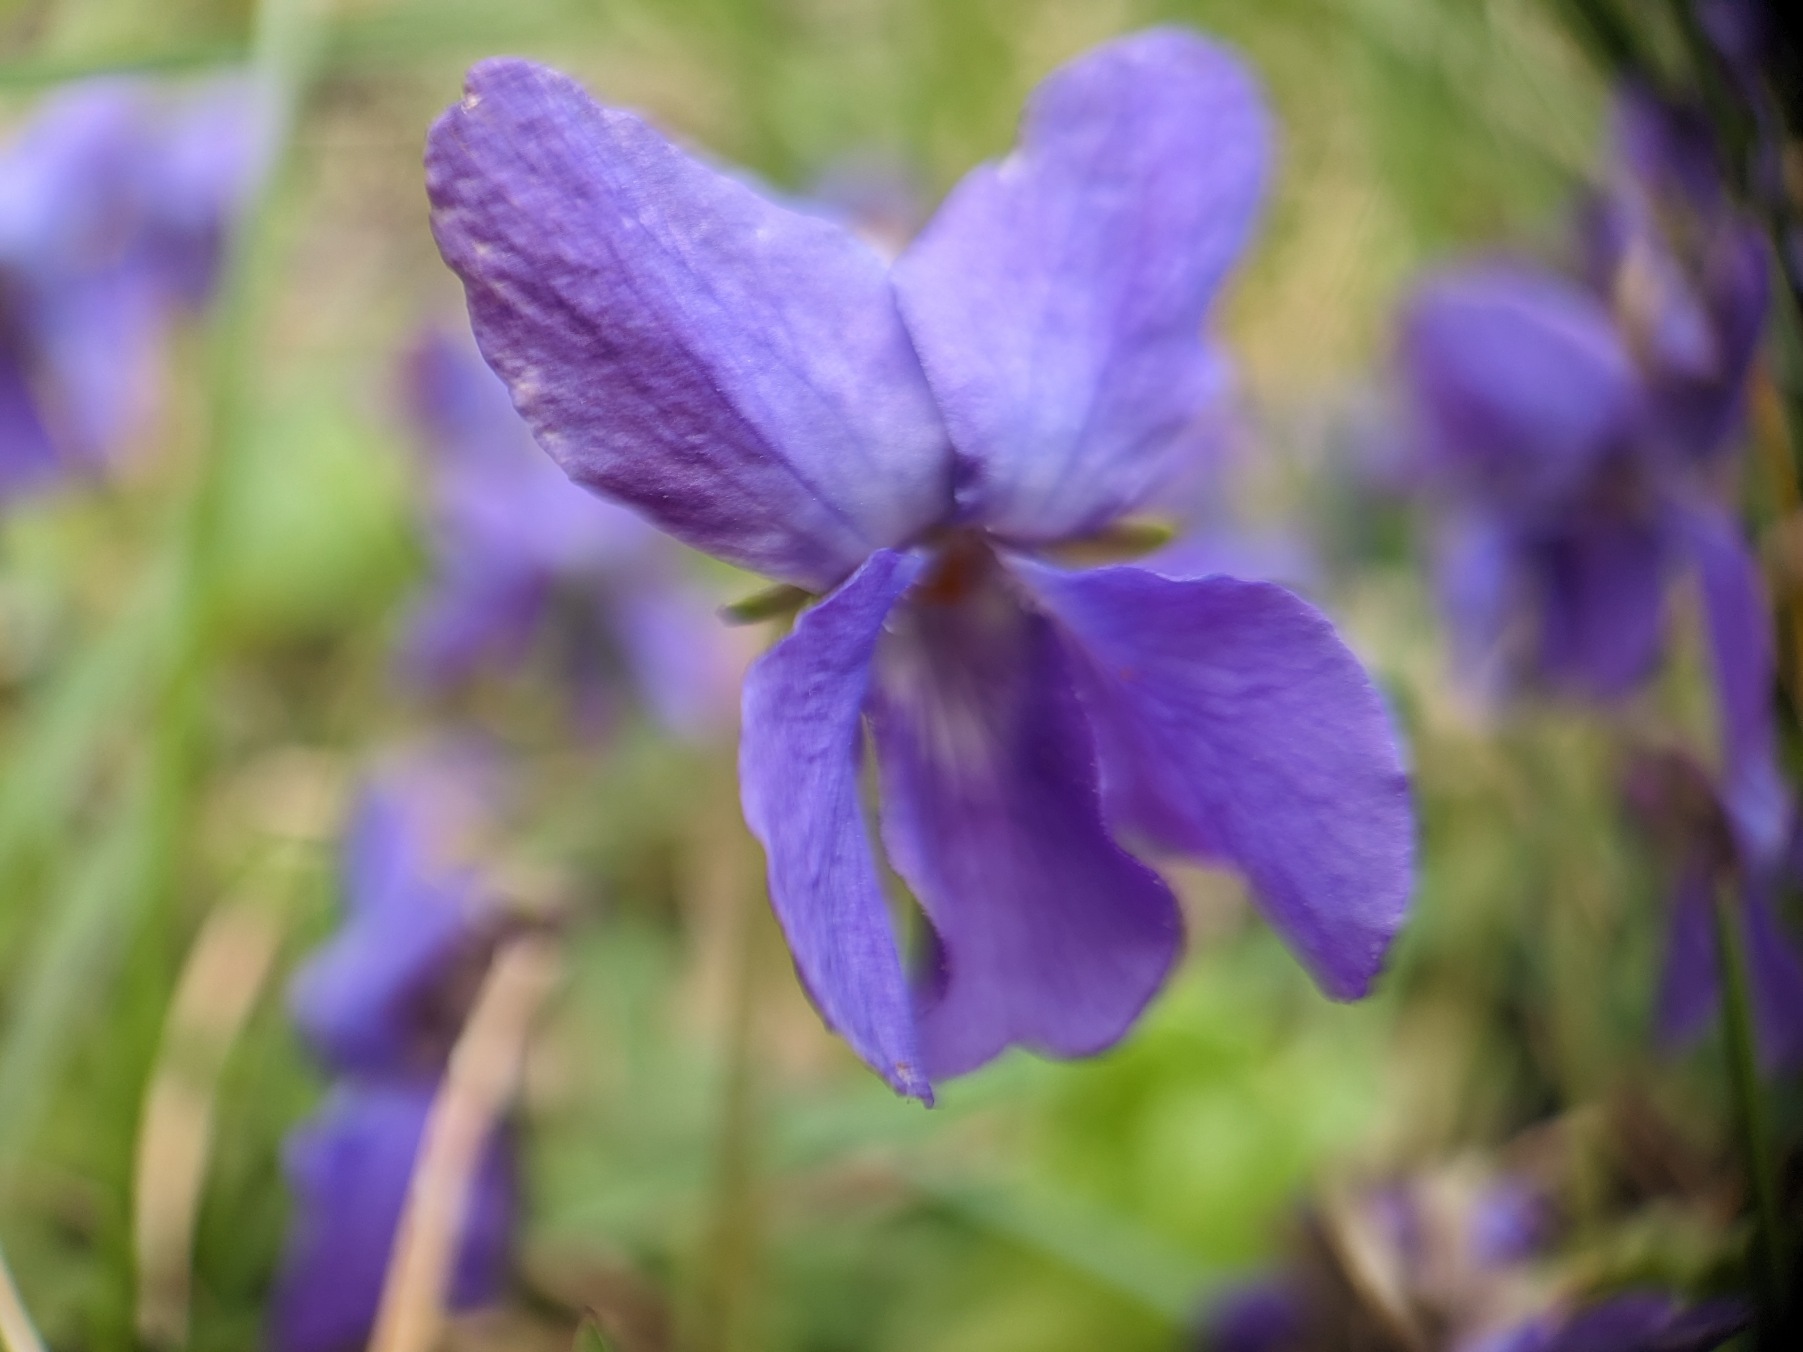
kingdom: Plantae
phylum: Tracheophyta
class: Magnoliopsida
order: Malpighiales
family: Violaceae
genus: Viola
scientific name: Viola odorata
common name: Marts-viol
